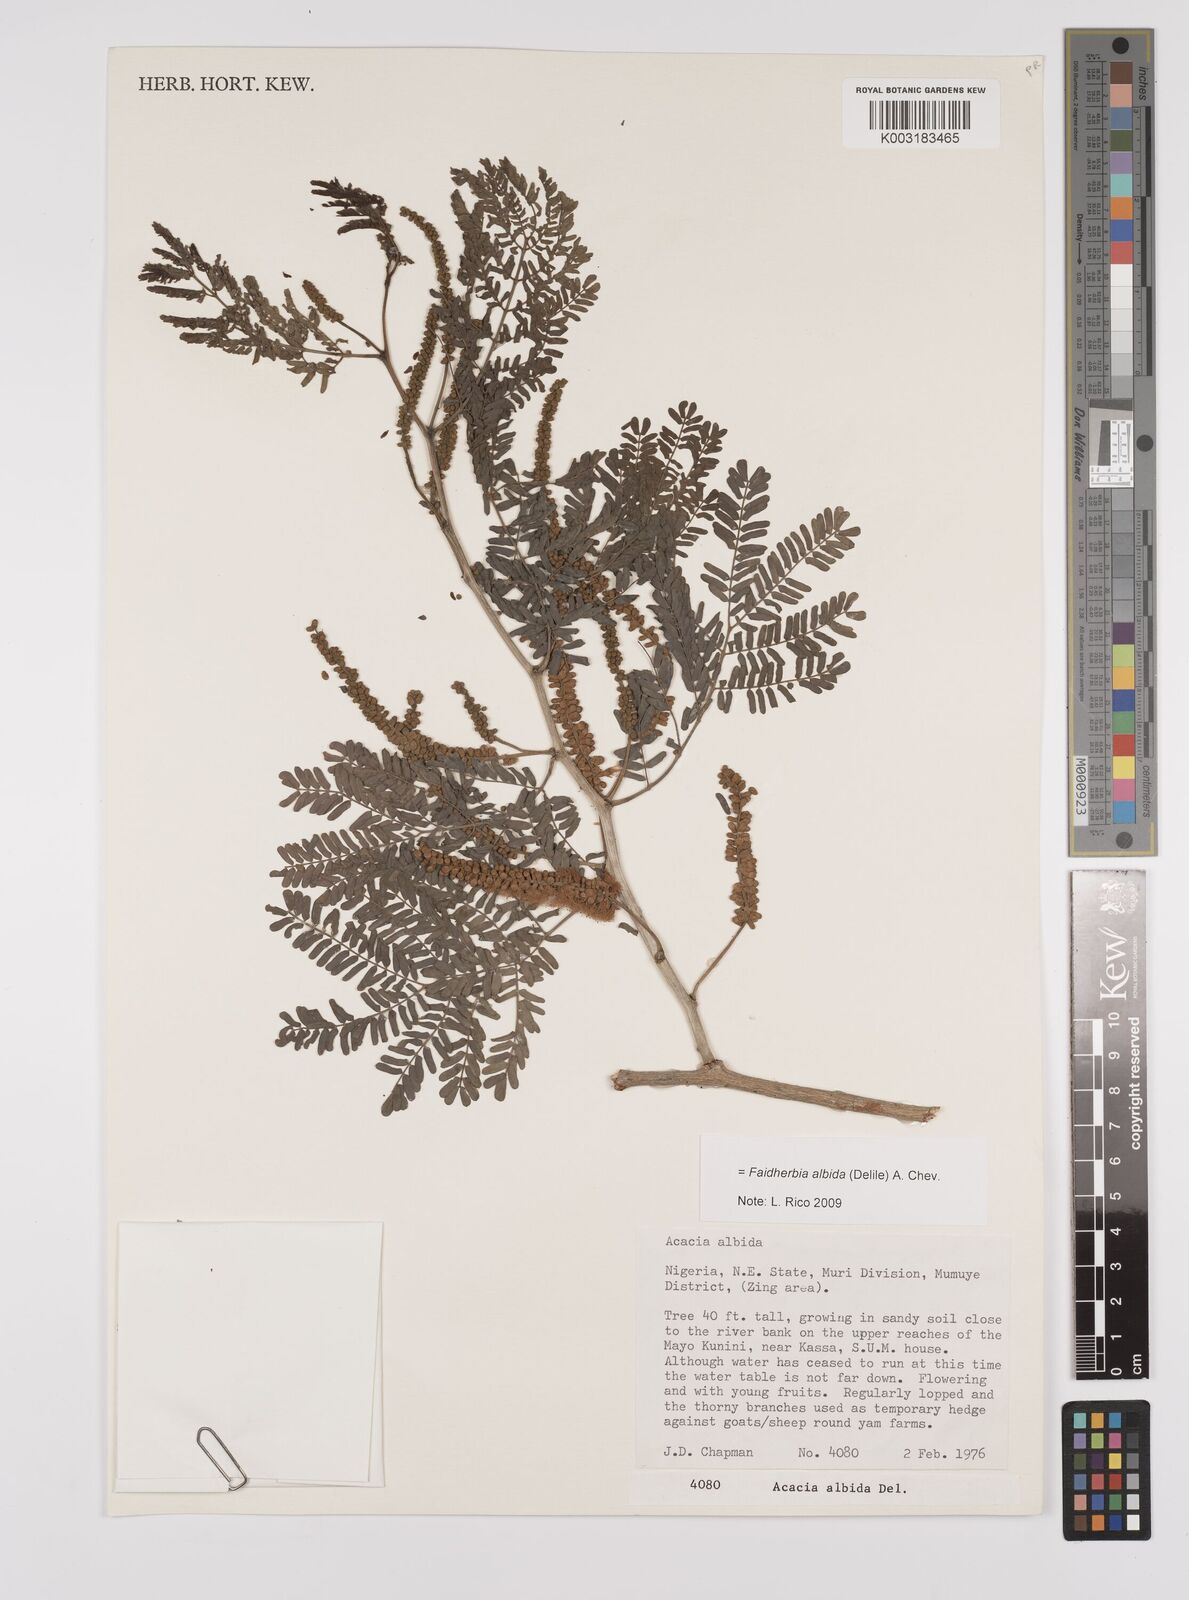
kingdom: Plantae
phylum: Tracheophyta
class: Magnoliopsida
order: Fabales
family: Fabaceae
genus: Faidherbia
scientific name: Faidherbia albida
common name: Anatree
